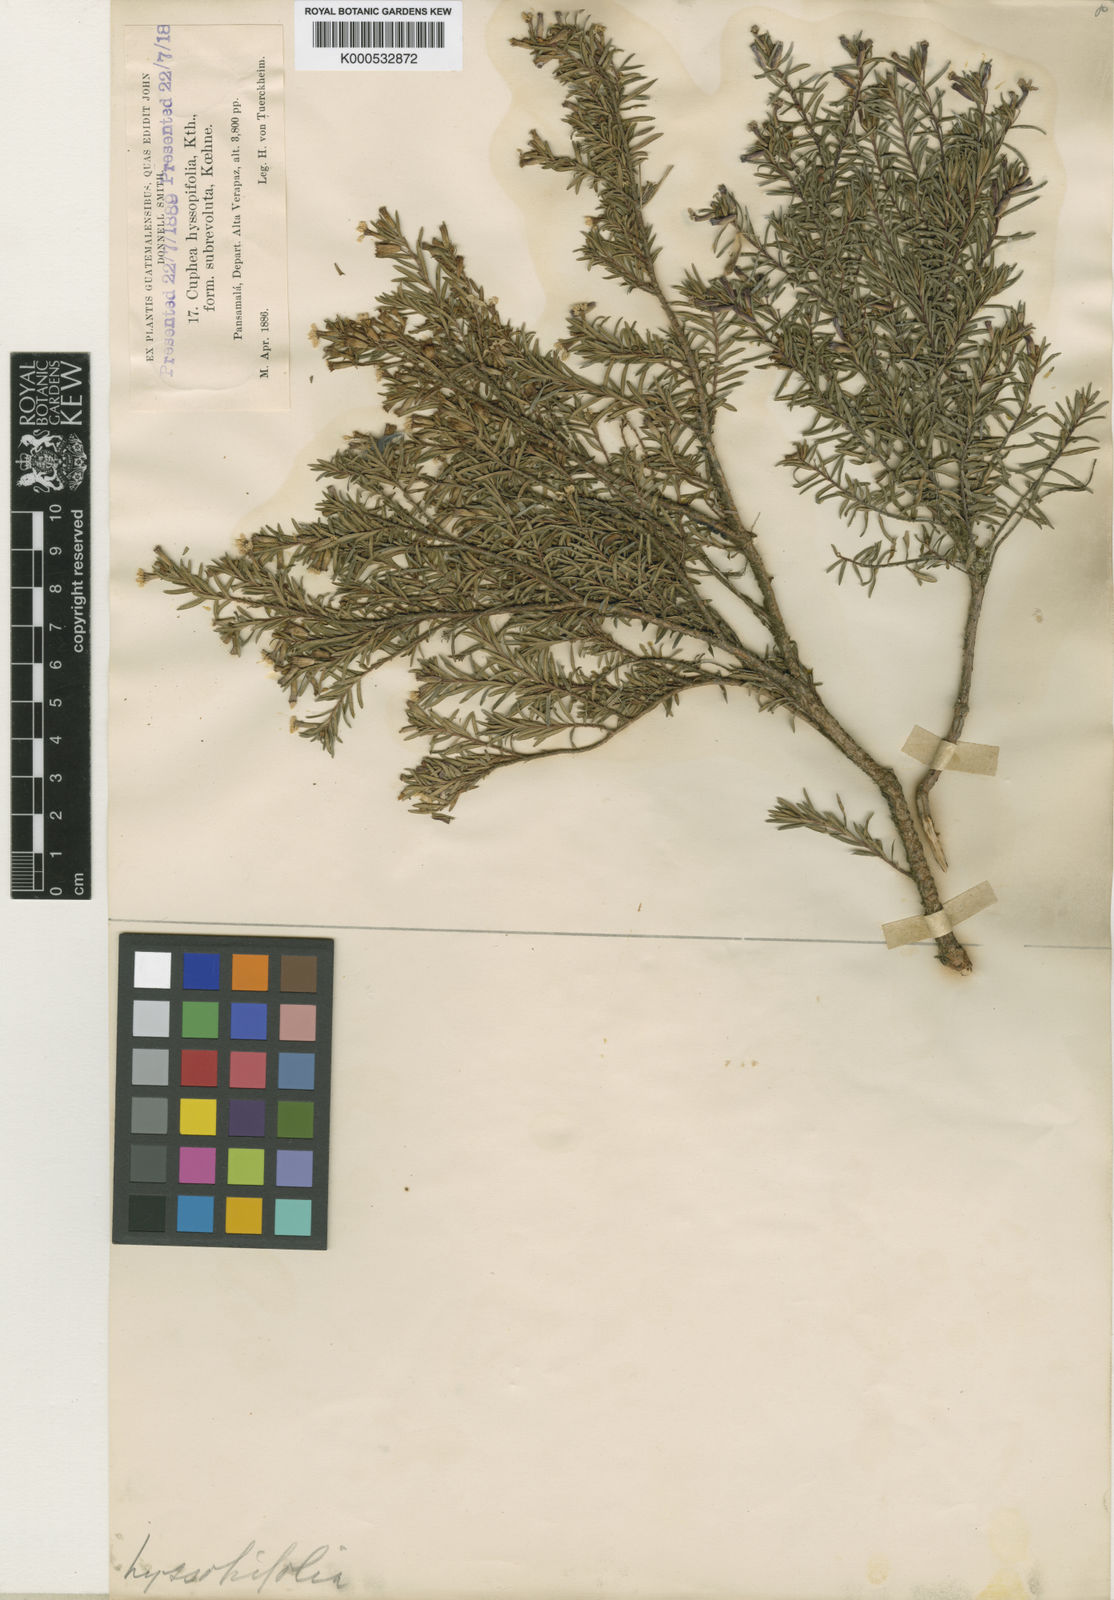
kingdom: Plantae
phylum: Tracheophyta
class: Magnoliopsida
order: Myrtales
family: Lythraceae
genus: Cuphea
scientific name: Cuphea hyssopifolia
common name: False heather
